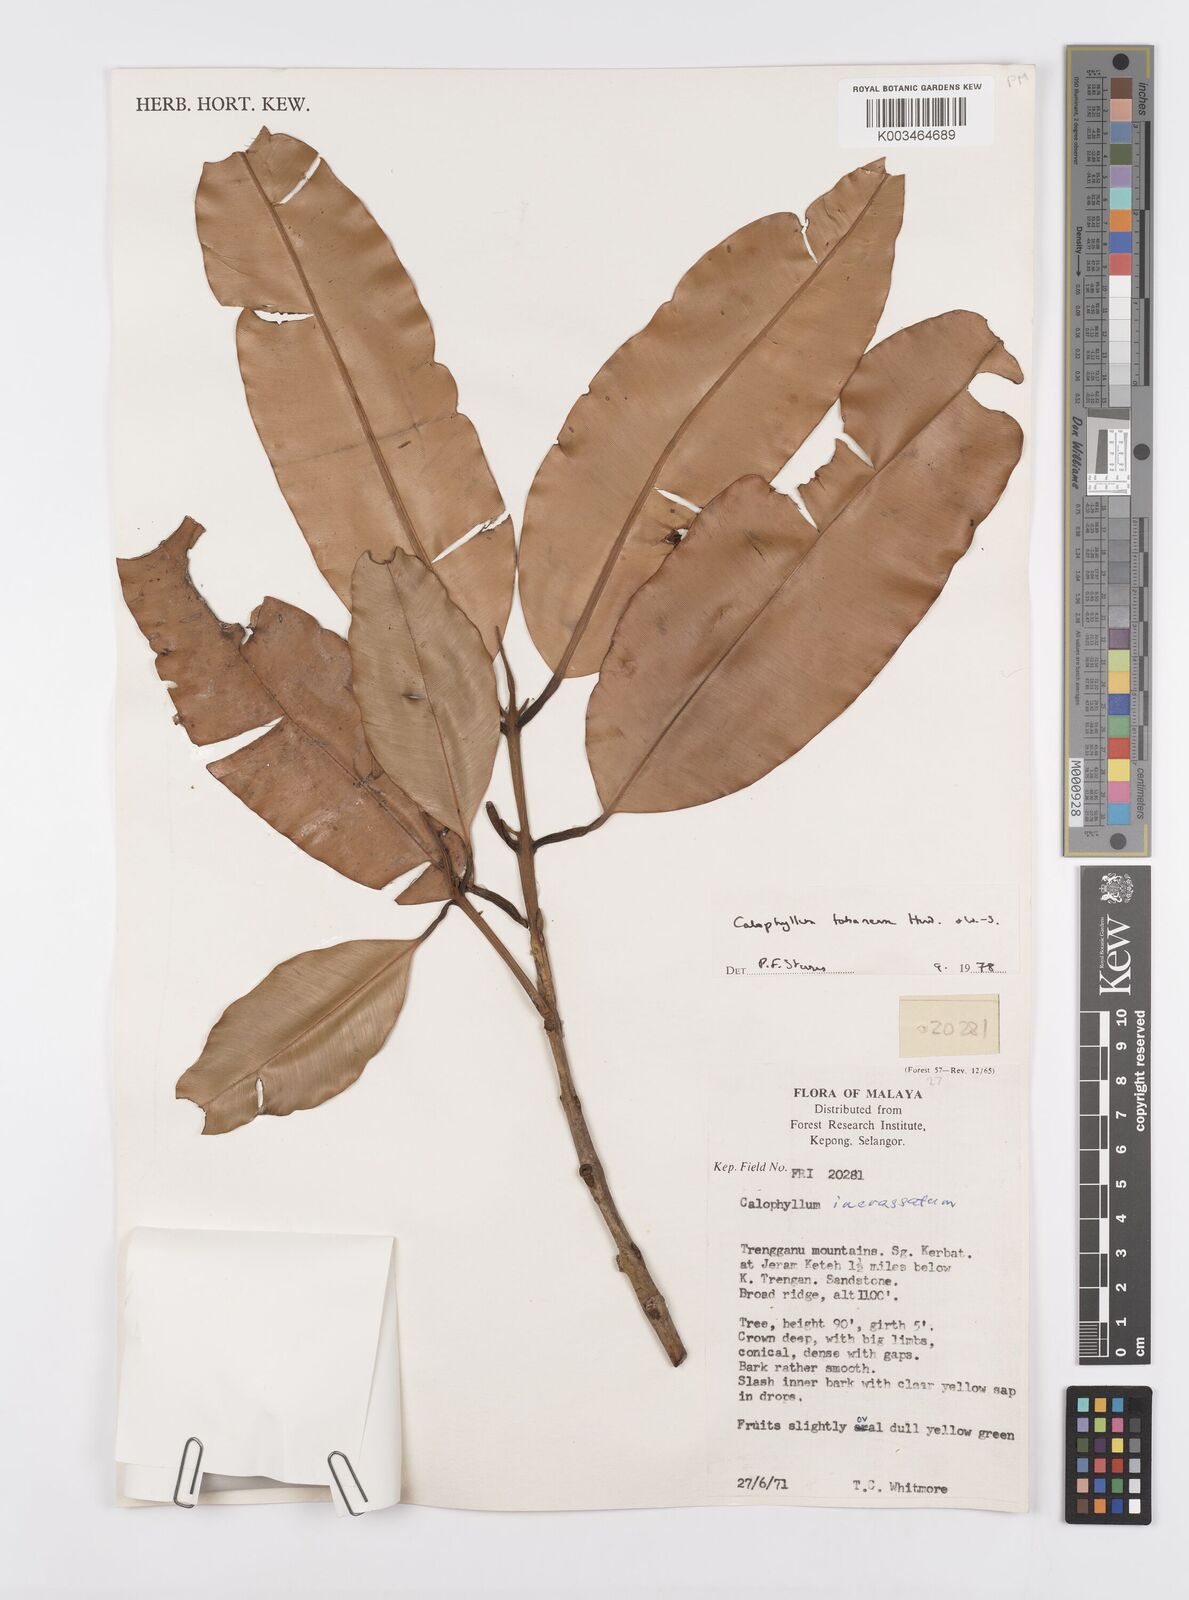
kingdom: Plantae
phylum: Tracheophyta
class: Magnoliopsida
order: Malpighiales
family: Calophyllaceae
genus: Calophyllum
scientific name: Calophyllum wallichiana
